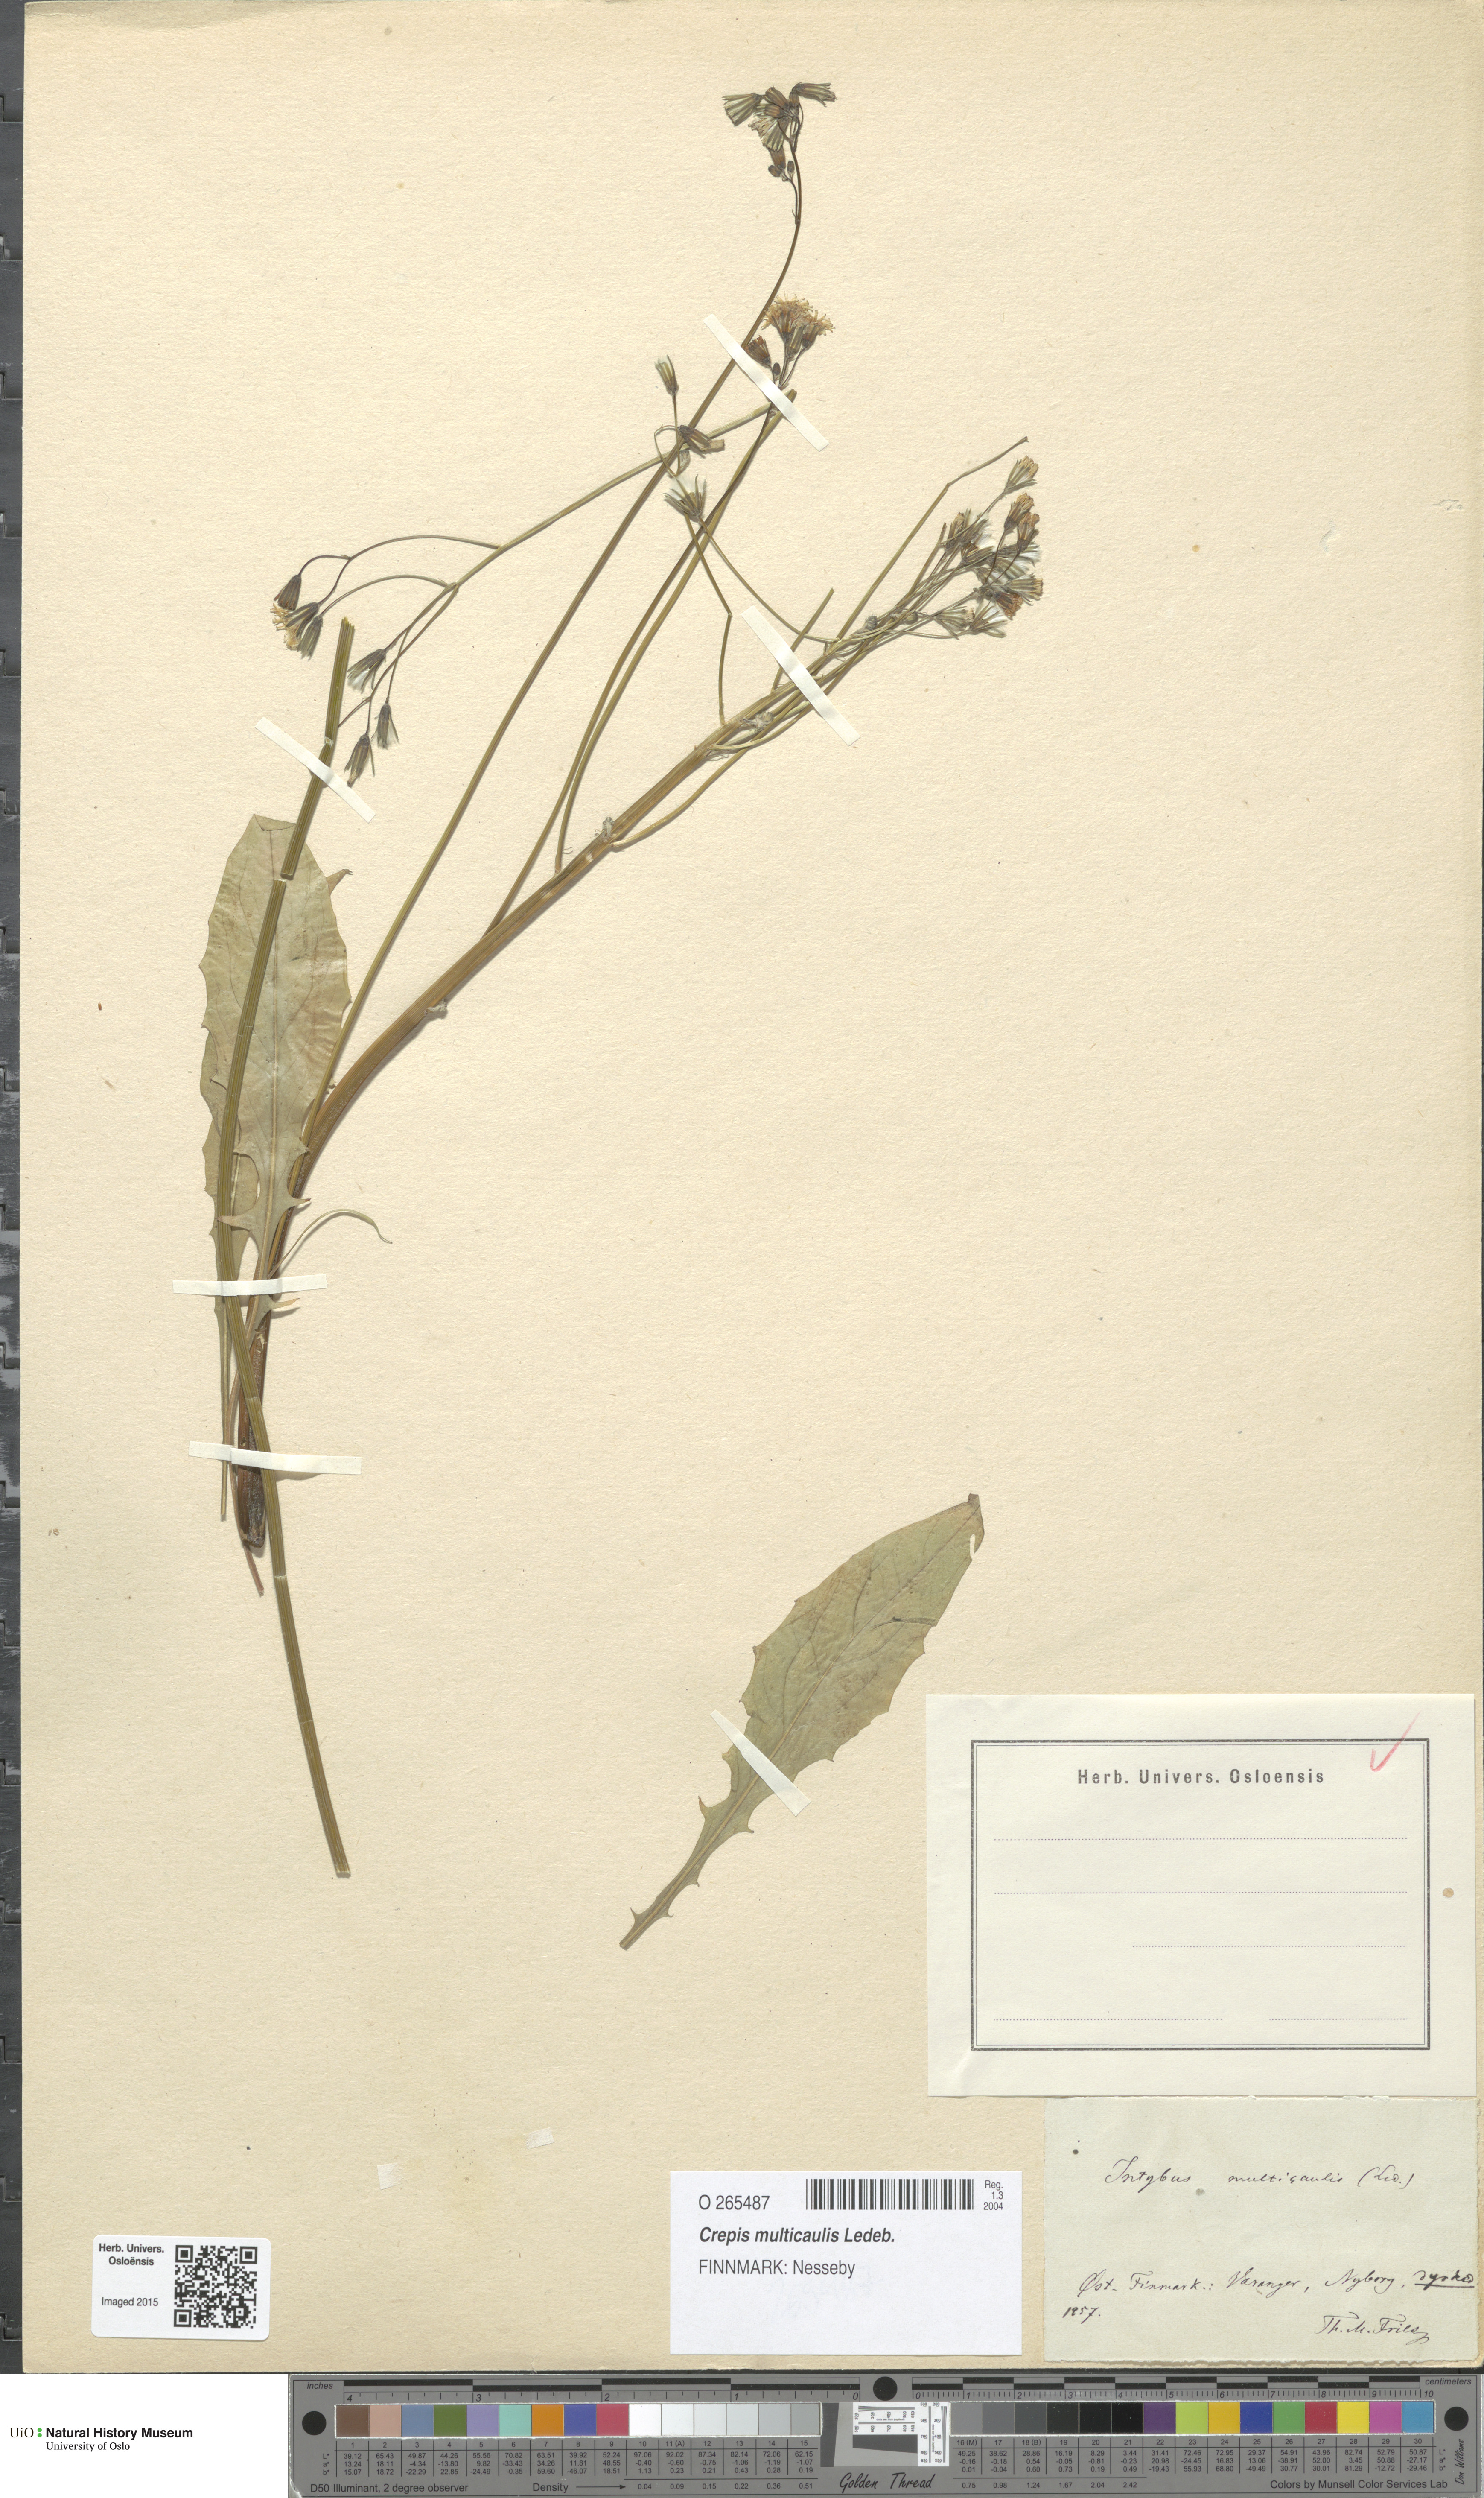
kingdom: Plantae
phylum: Tracheophyta
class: Magnoliopsida
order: Asterales
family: Asteraceae
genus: Crepis
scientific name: Crepis multicaulis
